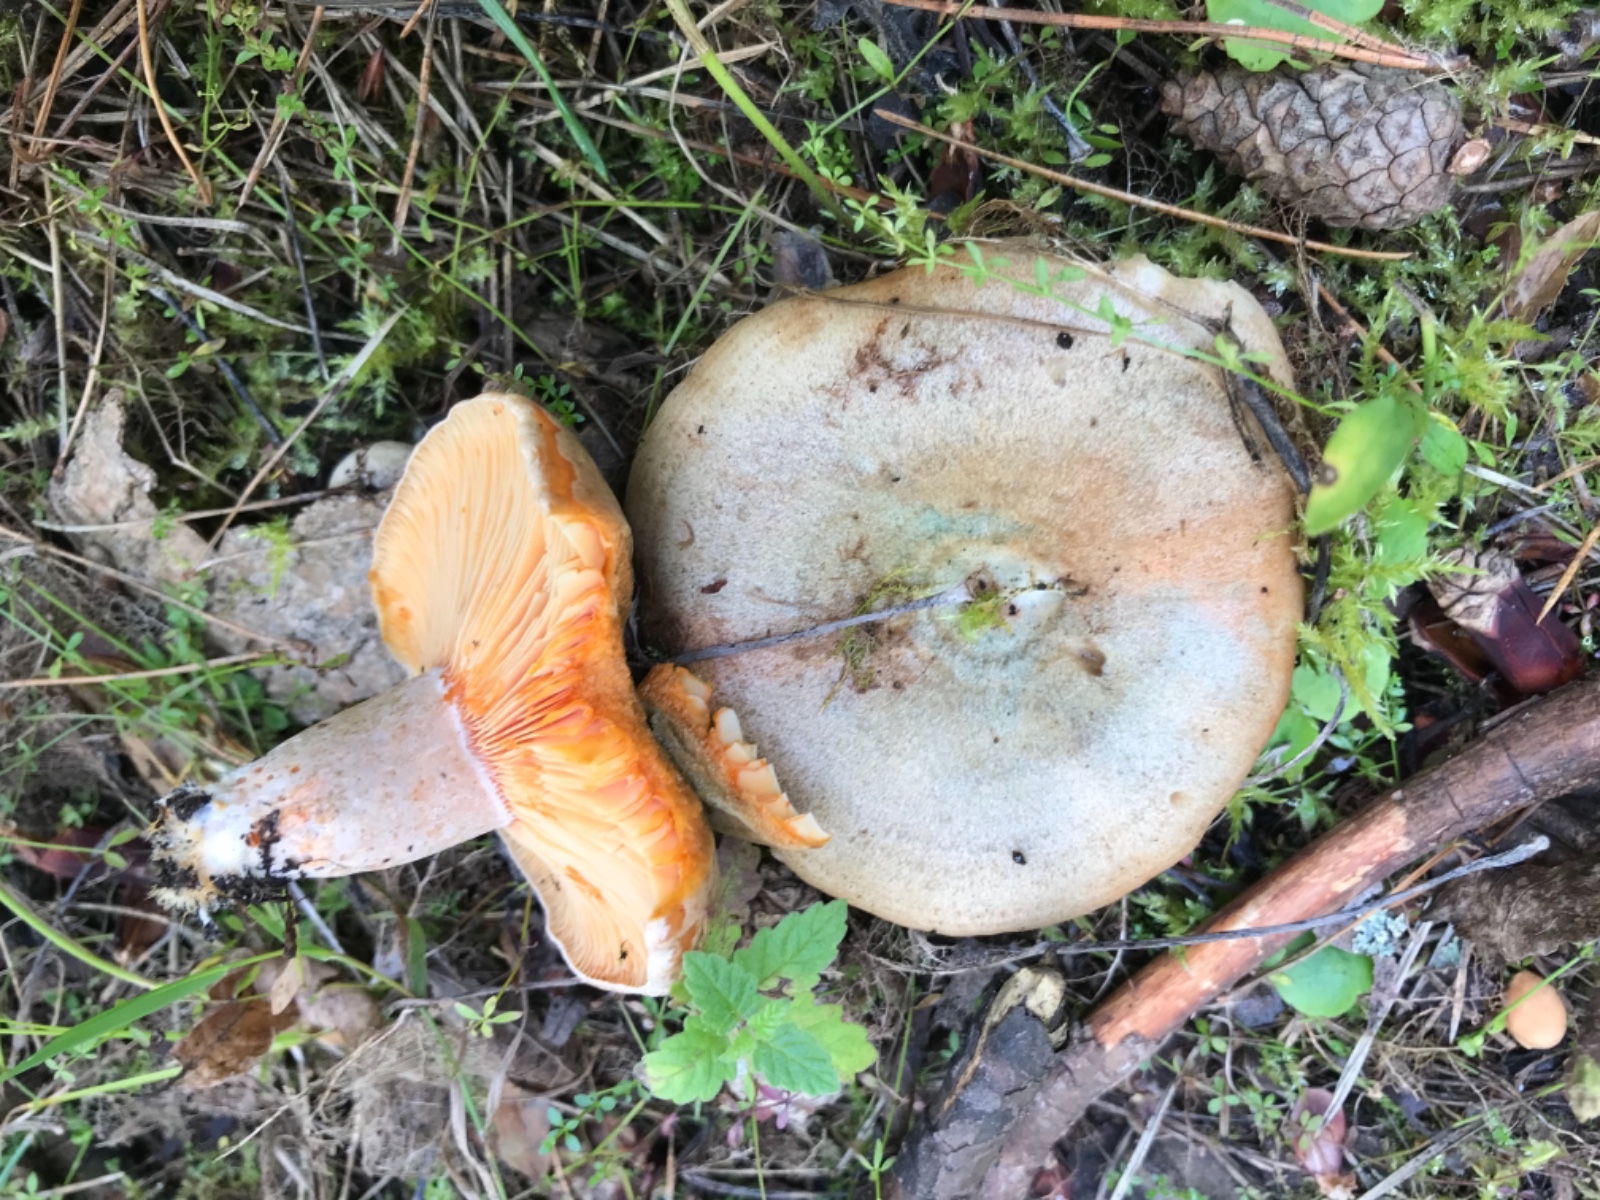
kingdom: Fungi
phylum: Basidiomycota
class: Agaricomycetes
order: Russulales
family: Russulaceae
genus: Lactarius
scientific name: Lactarius quieticolor
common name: tvefarvet mælkehat
